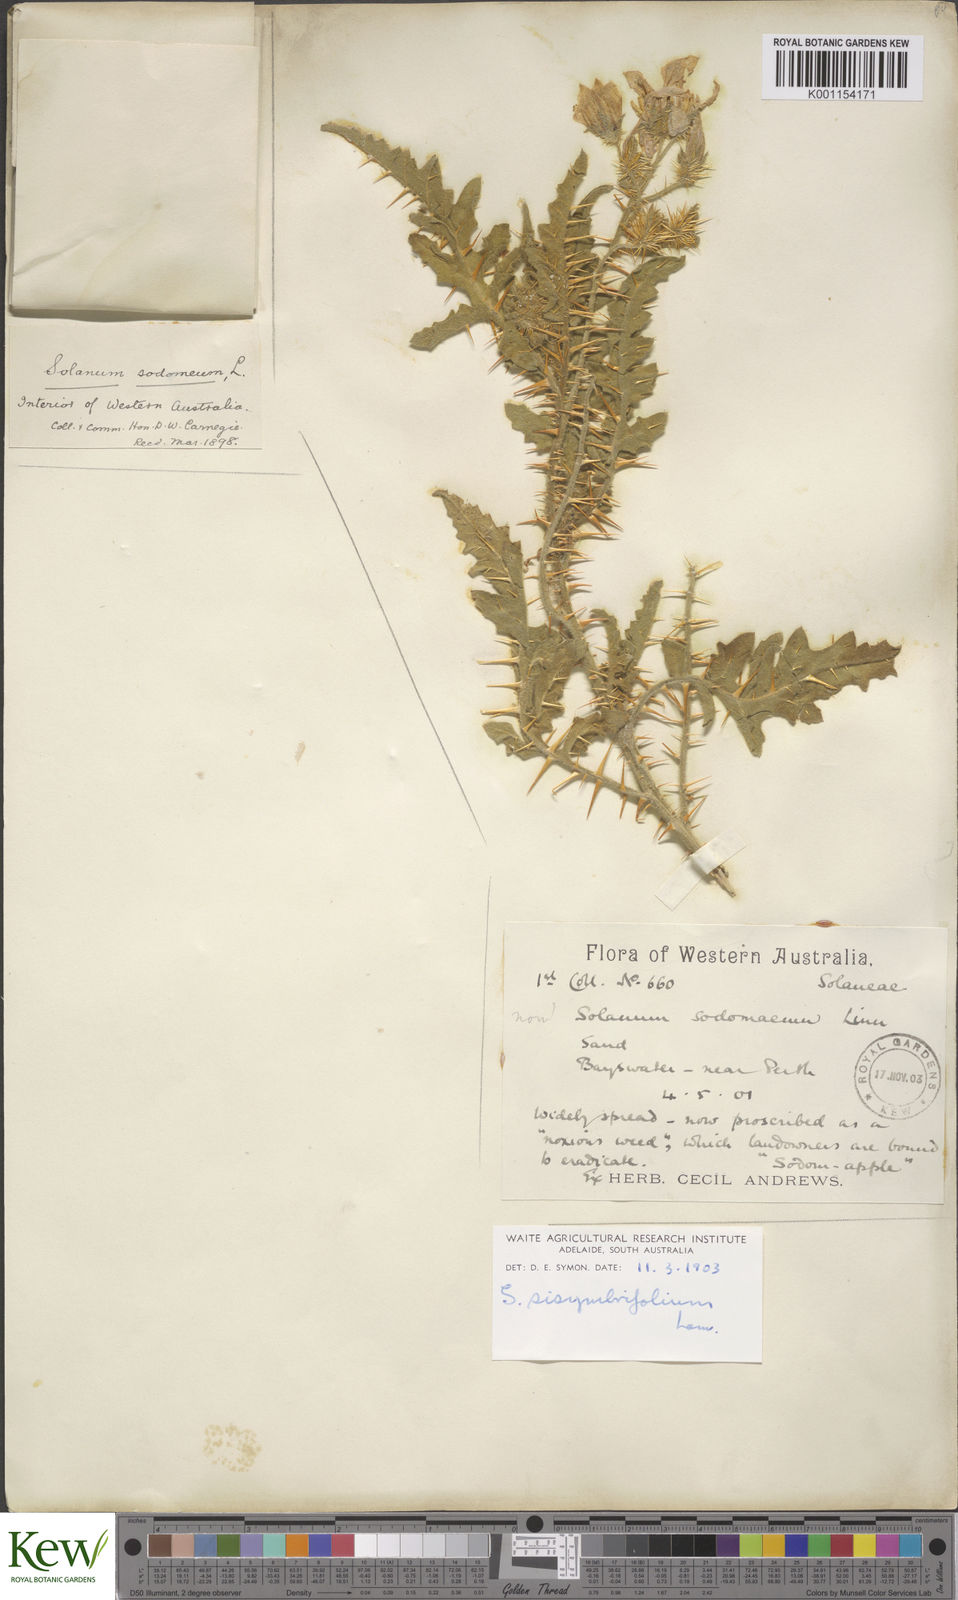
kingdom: Plantae
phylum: Tracheophyta
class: Magnoliopsida
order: Solanales
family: Solanaceae
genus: Solanum
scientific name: Solanum sisymbriifolium
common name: Red buffalo-bur
